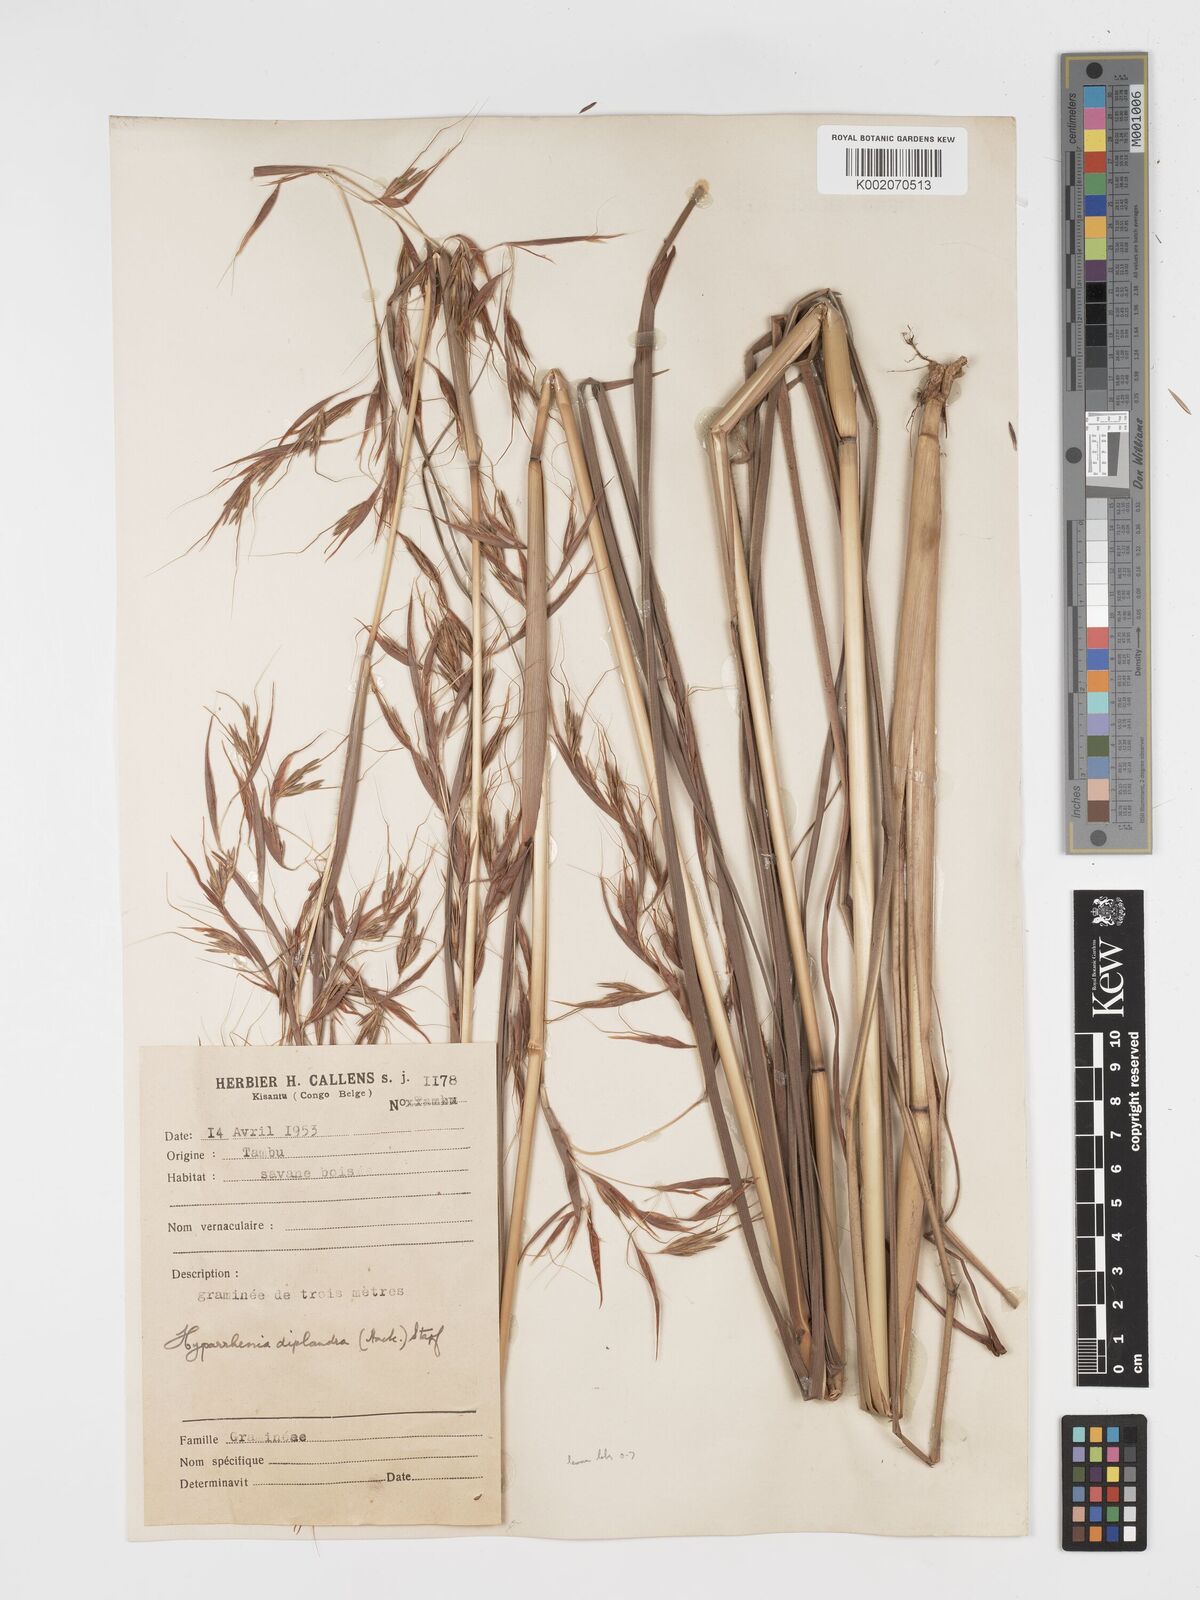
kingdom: Plantae
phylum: Tracheophyta
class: Liliopsida
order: Poales
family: Poaceae
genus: Hyparrhenia
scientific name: Hyparrhenia diplandra
